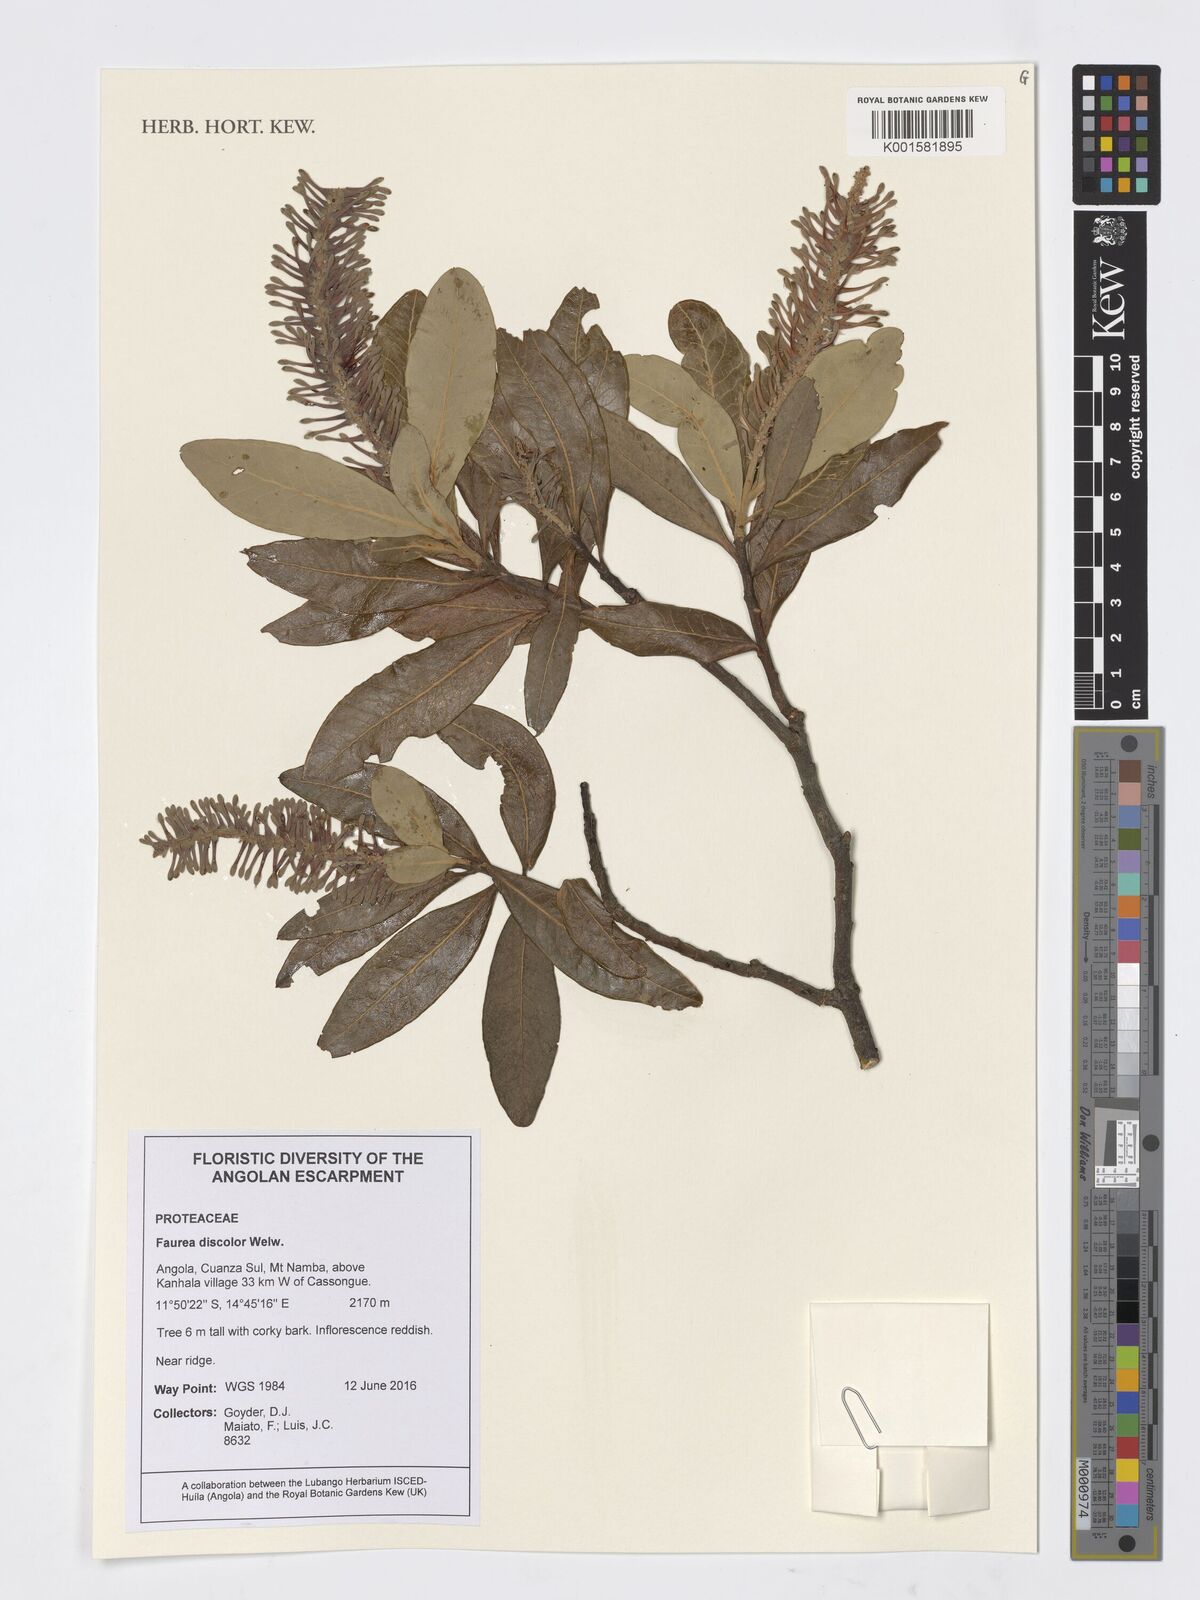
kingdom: Plantae
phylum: Tracheophyta
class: Magnoliopsida
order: Proteales
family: Proteaceae
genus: Faurea
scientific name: Faurea discolor
